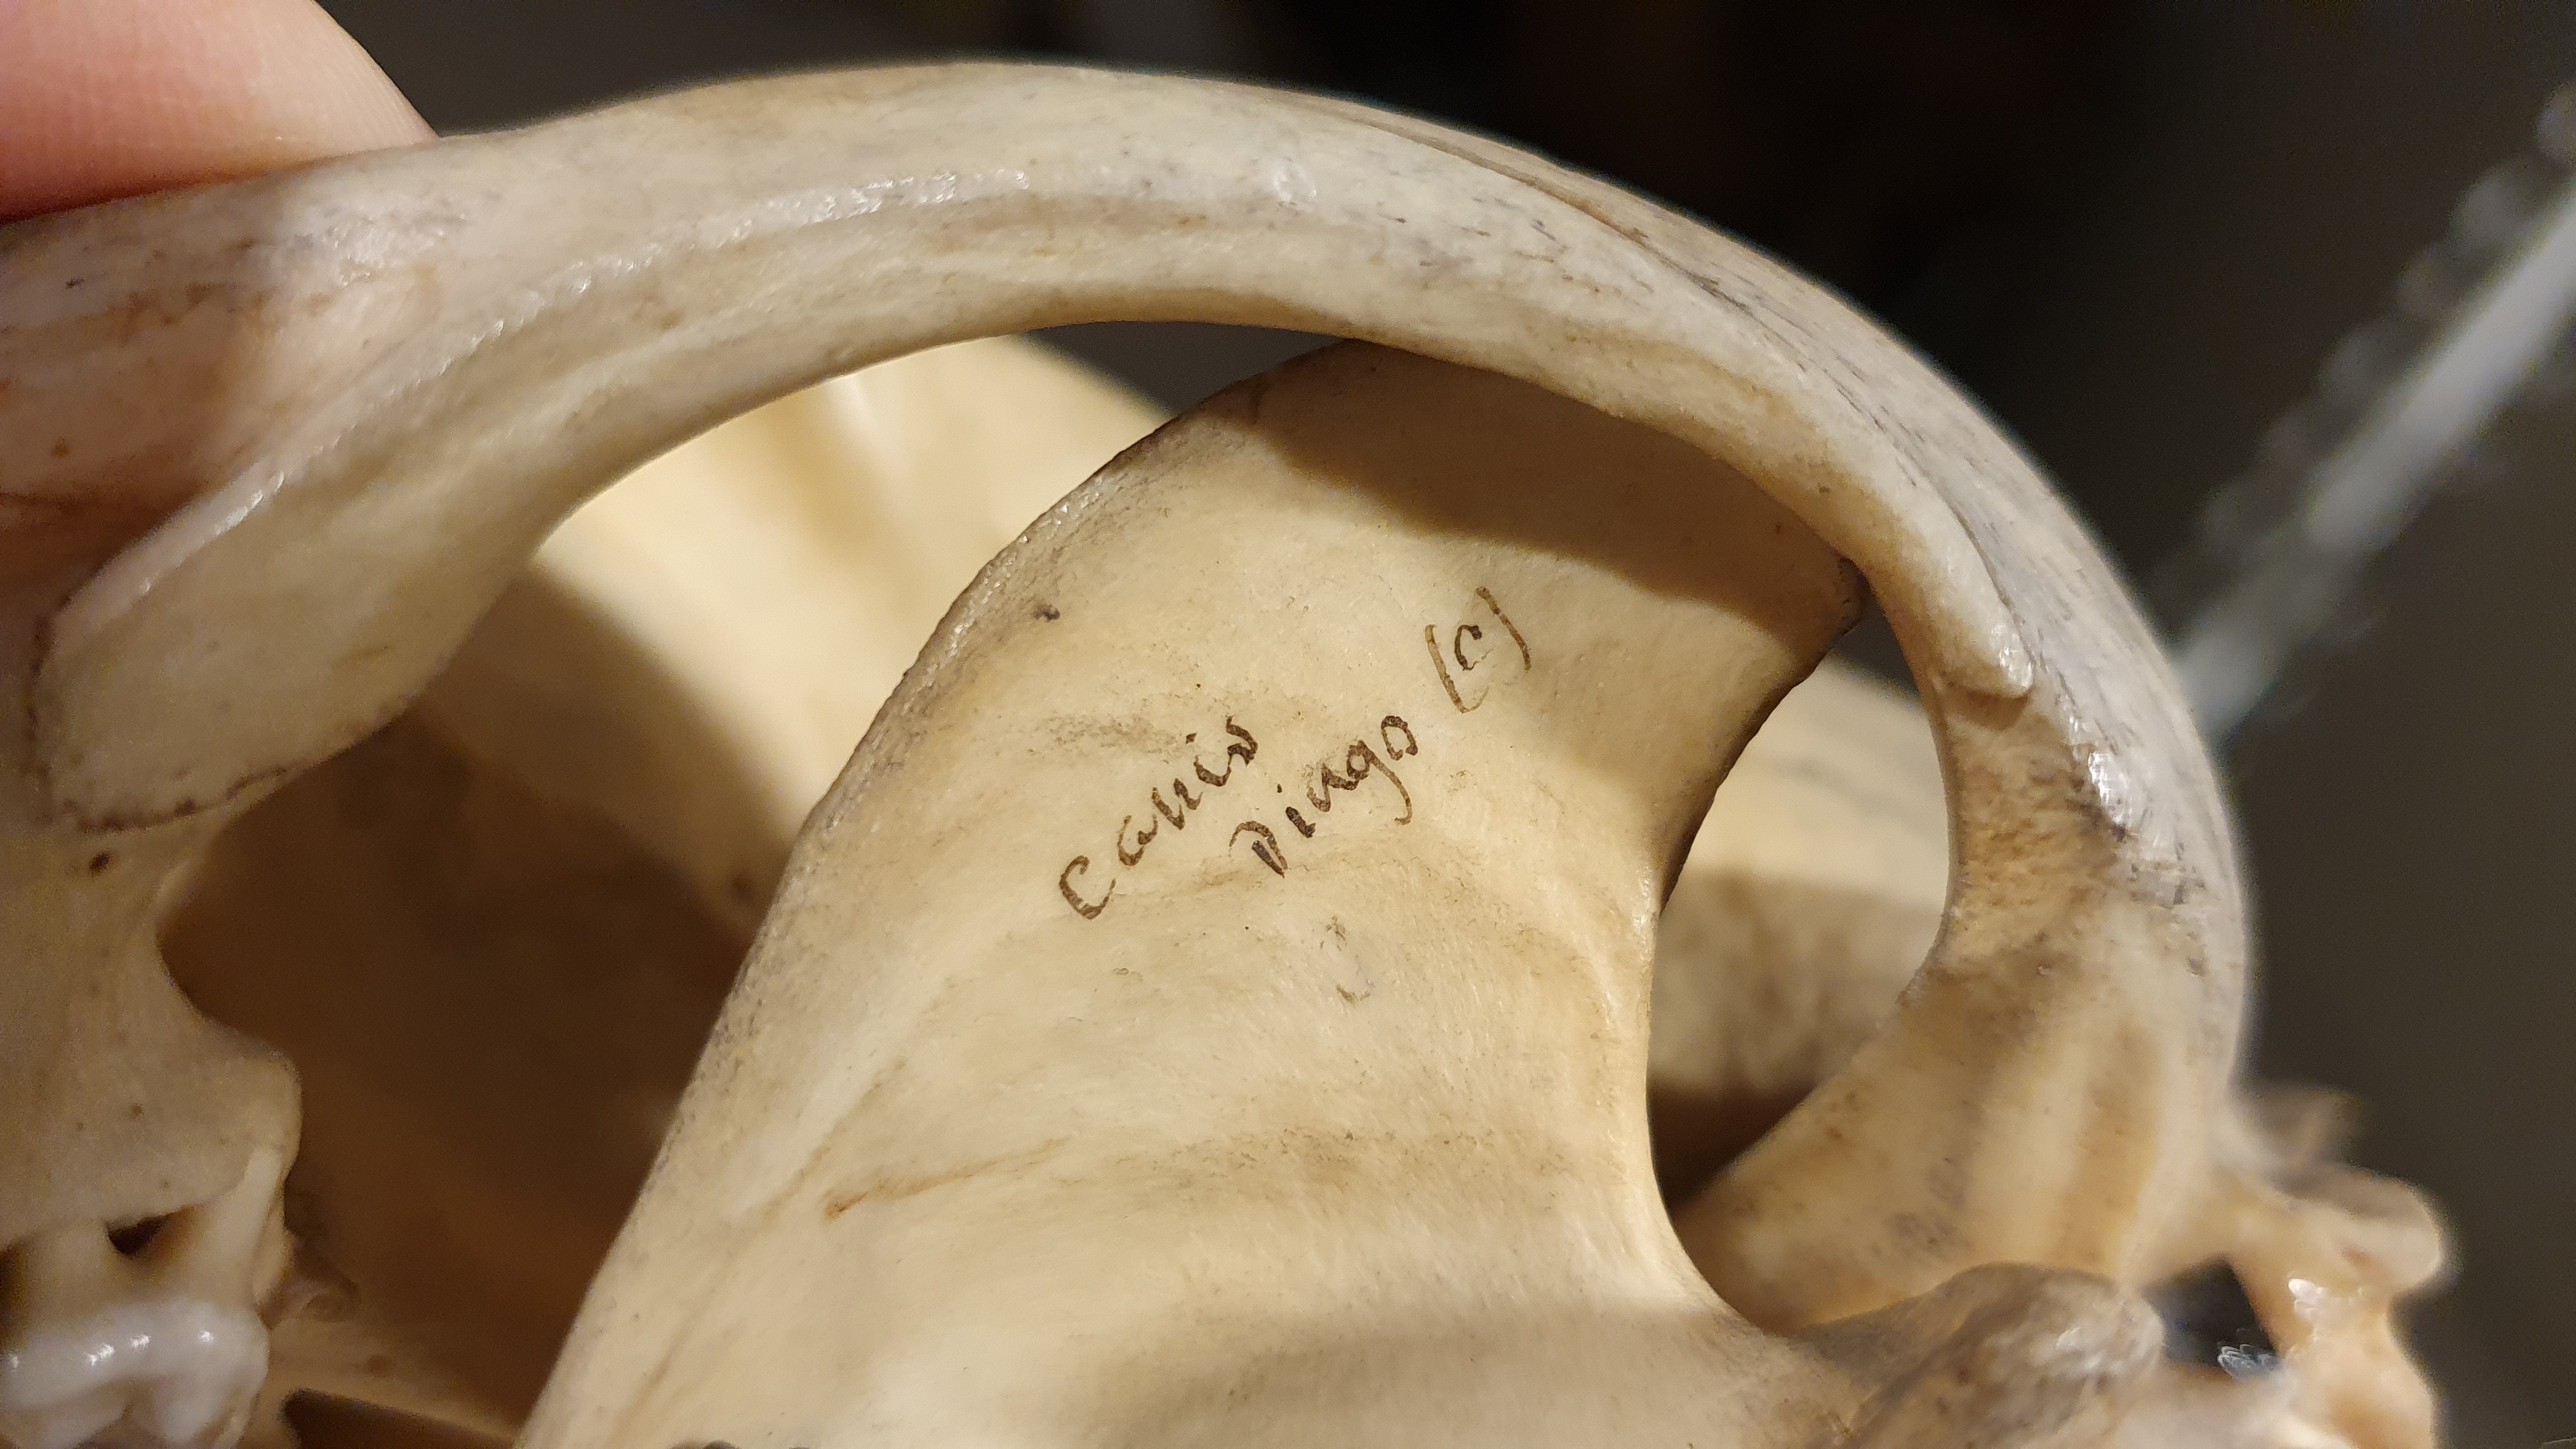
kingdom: Animalia
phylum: Chordata
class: Mammalia
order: Carnivora
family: Canidae
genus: Canis
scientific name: Canis lupus
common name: Gray wolf
